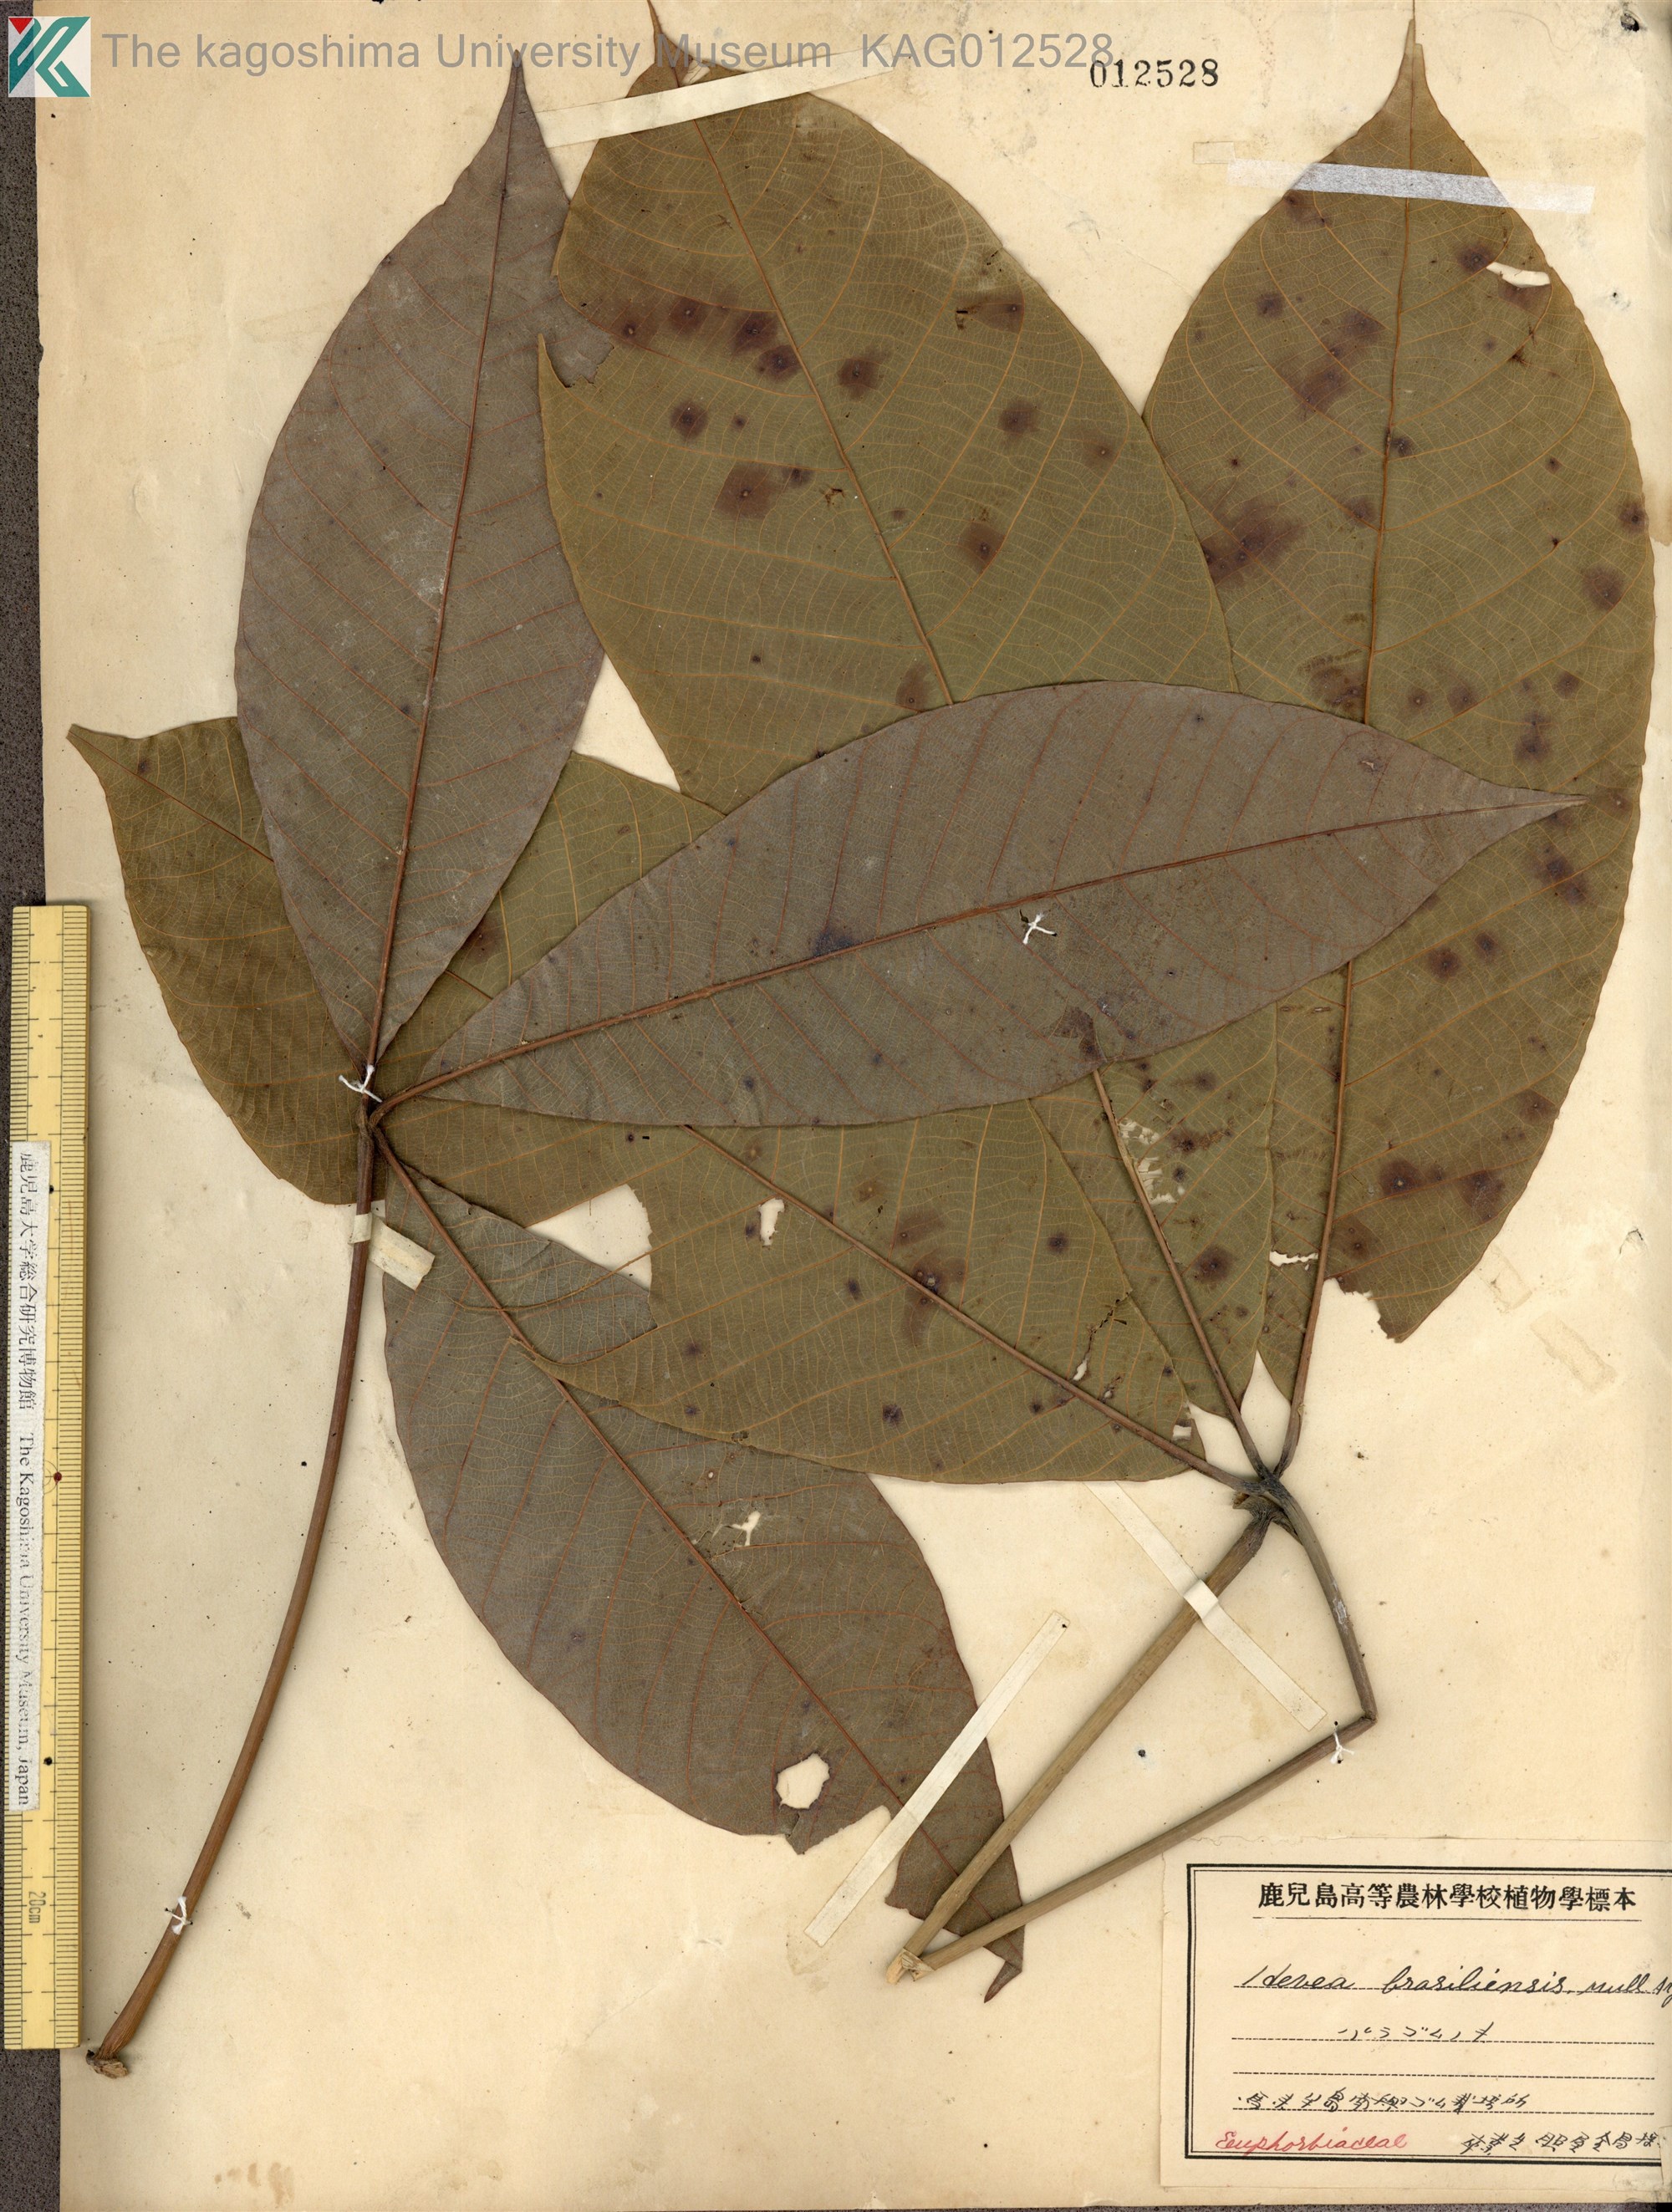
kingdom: Plantae
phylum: Tracheophyta
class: Magnoliopsida
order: Malpighiales
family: Euphorbiaceae
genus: Hevea
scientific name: Hevea brasiliensis
